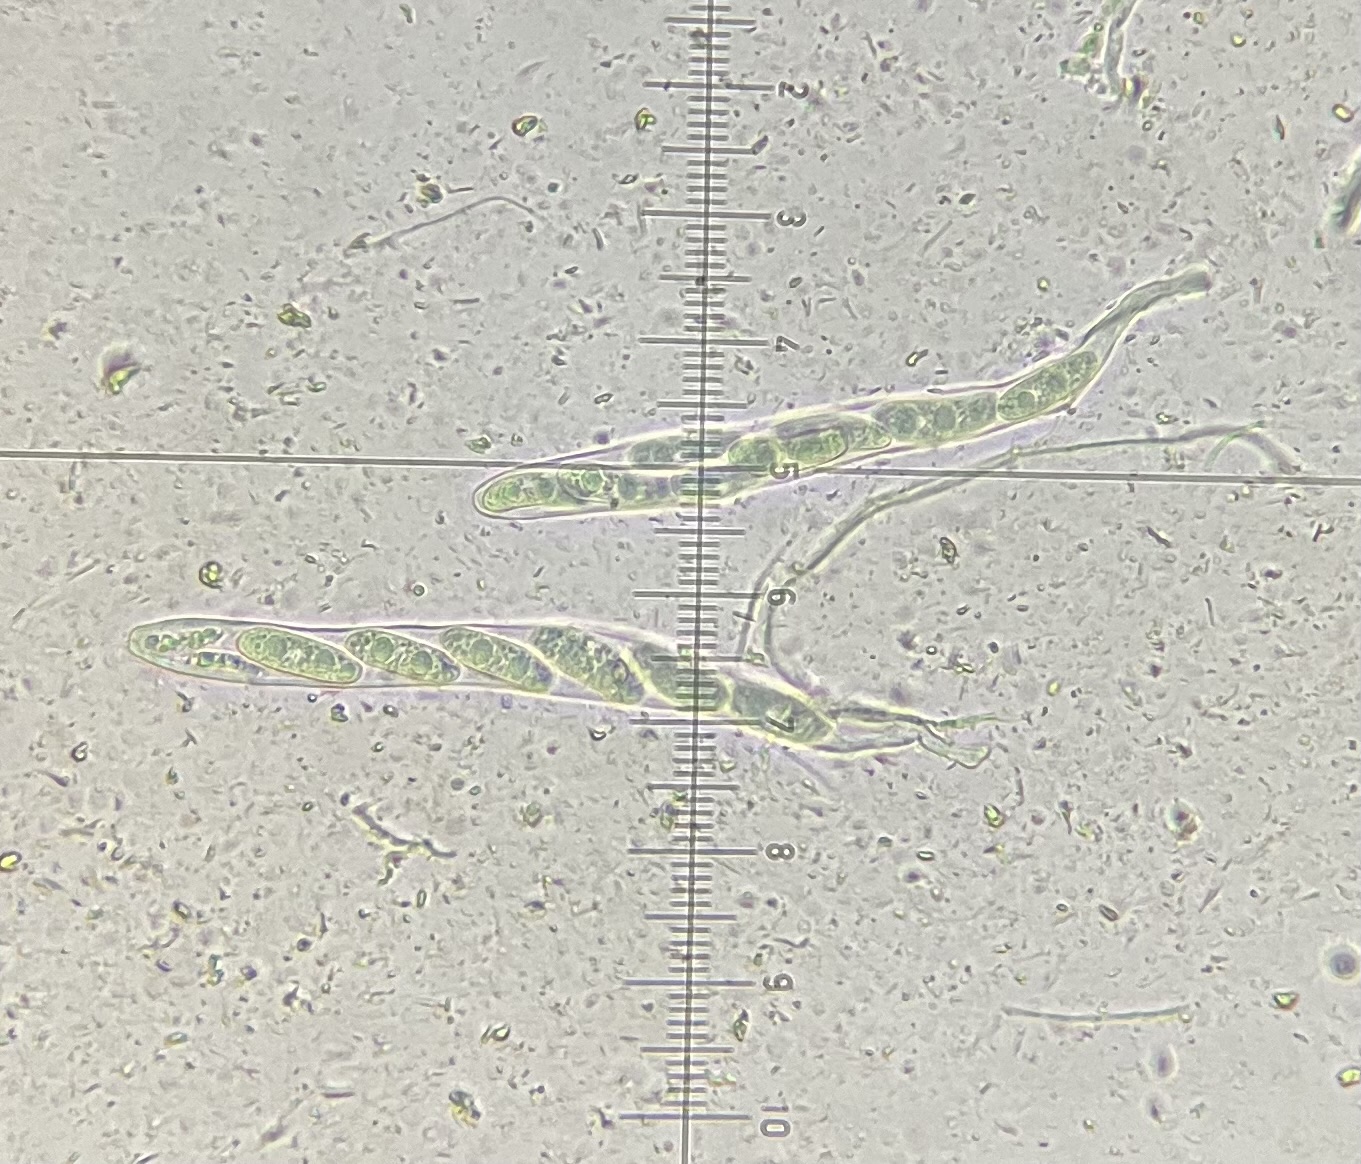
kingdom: Fungi
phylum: Ascomycota
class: Leotiomycetes
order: Chaetomellales
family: Marthamycetaceae
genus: Propolis
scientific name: Propolis farinosa
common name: almindelig vedsprængerskive
